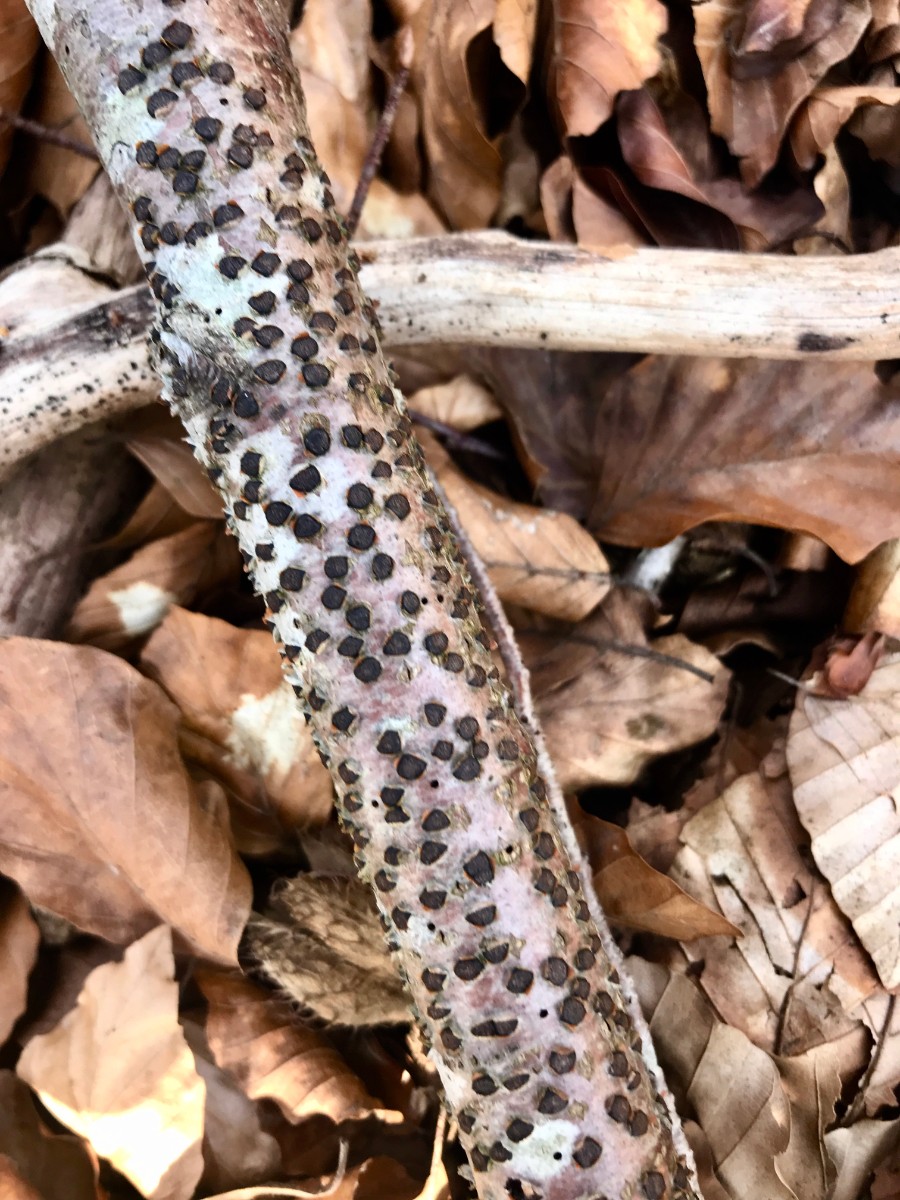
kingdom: Fungi
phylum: Ascomycota
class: Sordariomycetes
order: Xylariales
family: Diatrypaceae
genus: Diatrype
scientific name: Diatrype disciformis
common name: kant-kulskorpe
